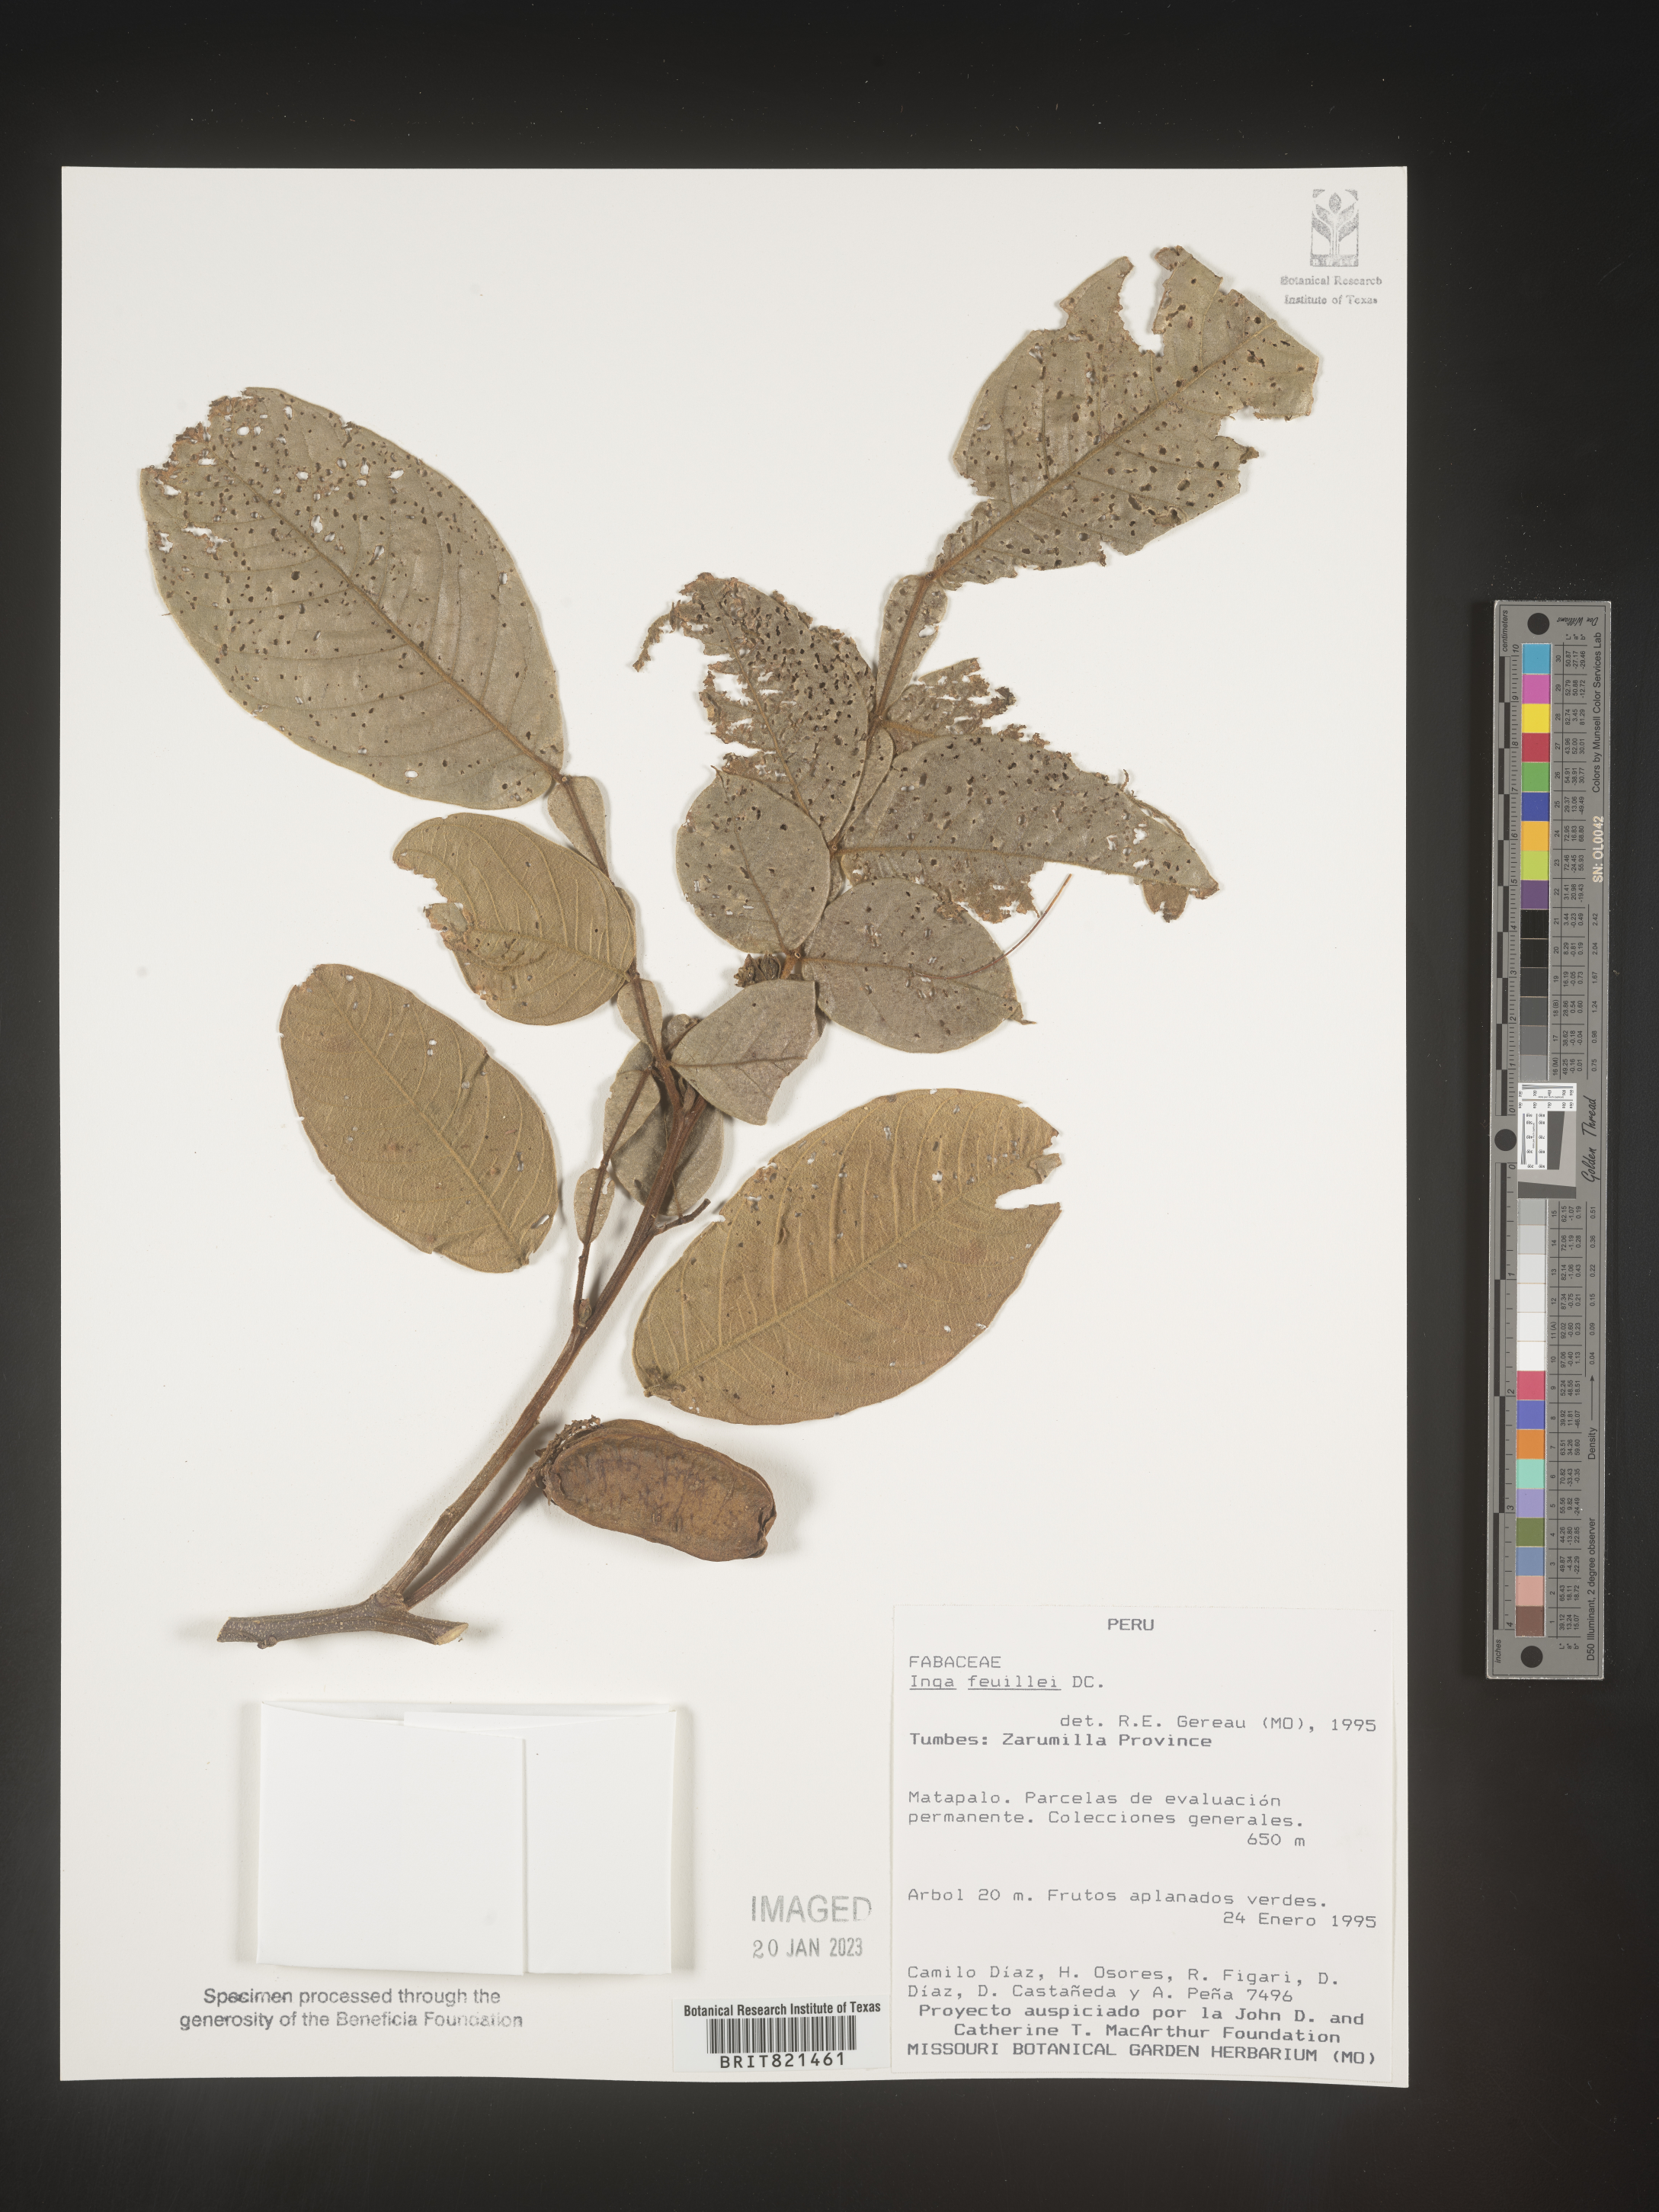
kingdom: Plantae
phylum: Tracheophyta
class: Magnoliopsida
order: Fabales
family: Fabaceae
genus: Inga
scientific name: Inga
